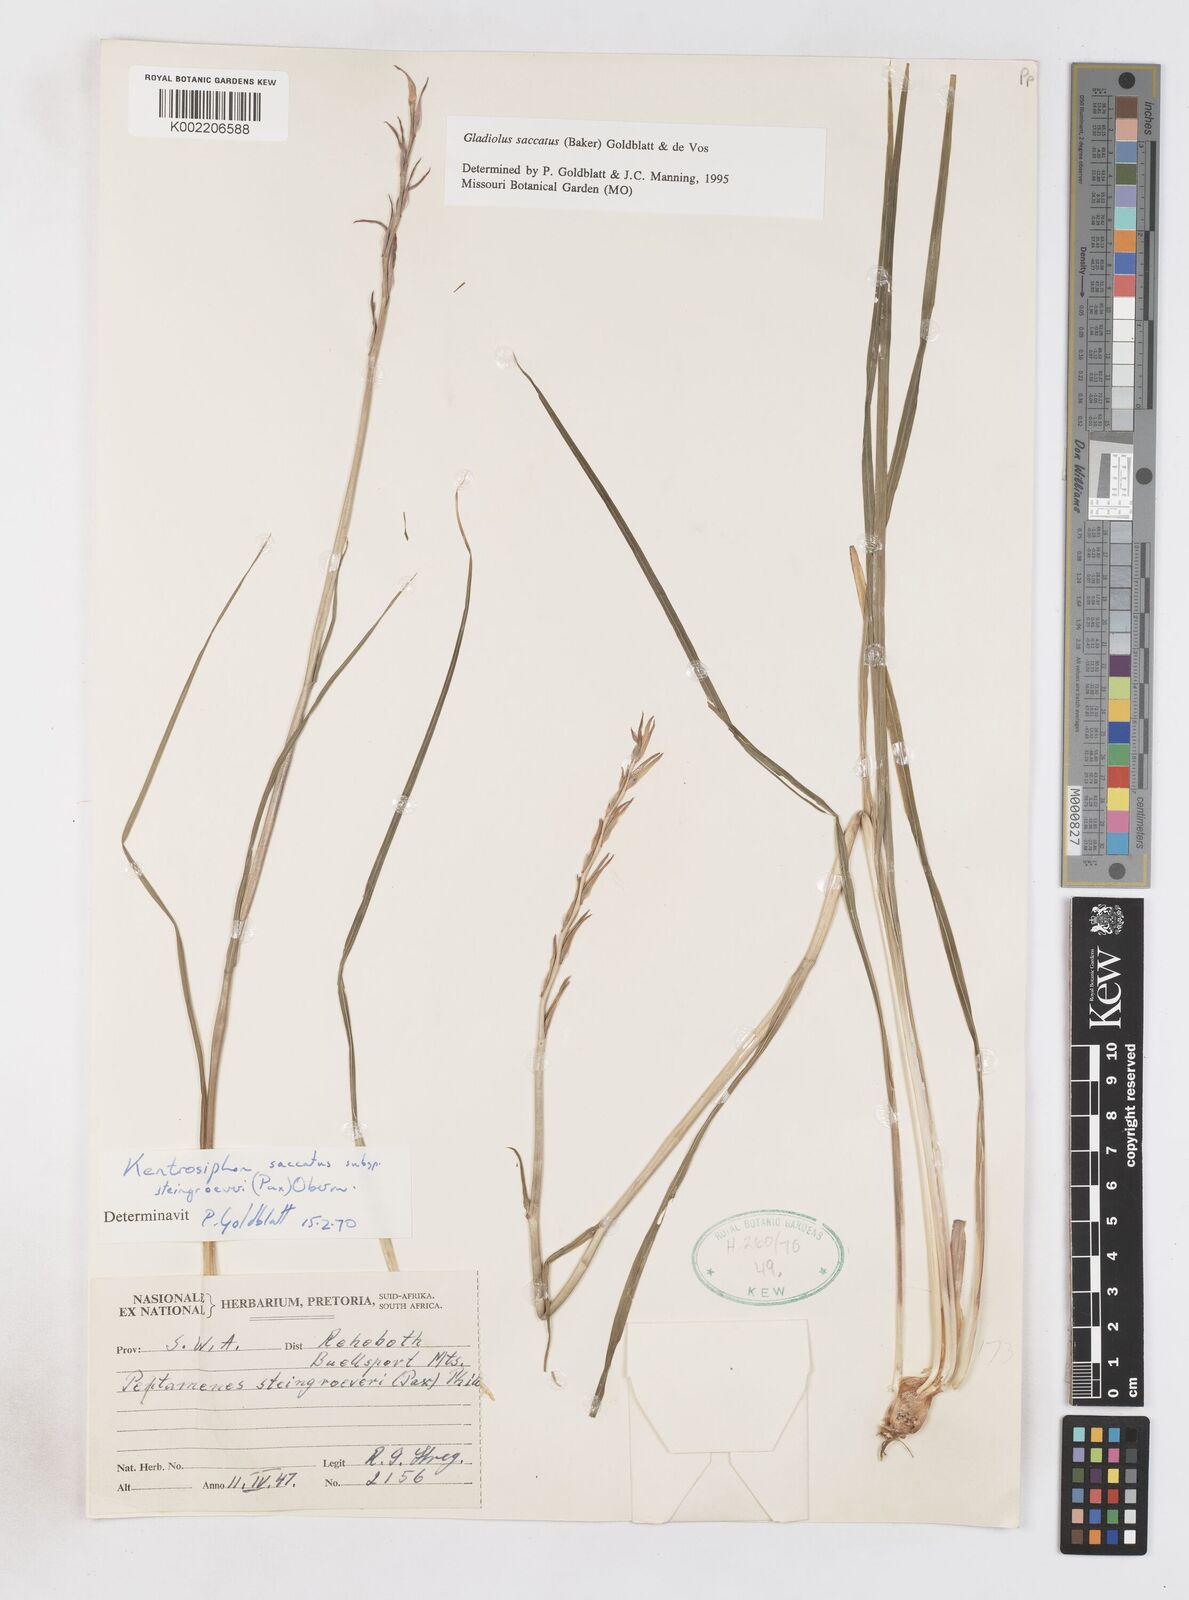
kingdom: Plantae
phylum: Tracheophyta
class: Liliopsida
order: Asparagales
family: Iridaceae
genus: Gladiolus
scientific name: Gladiolus saccatus
